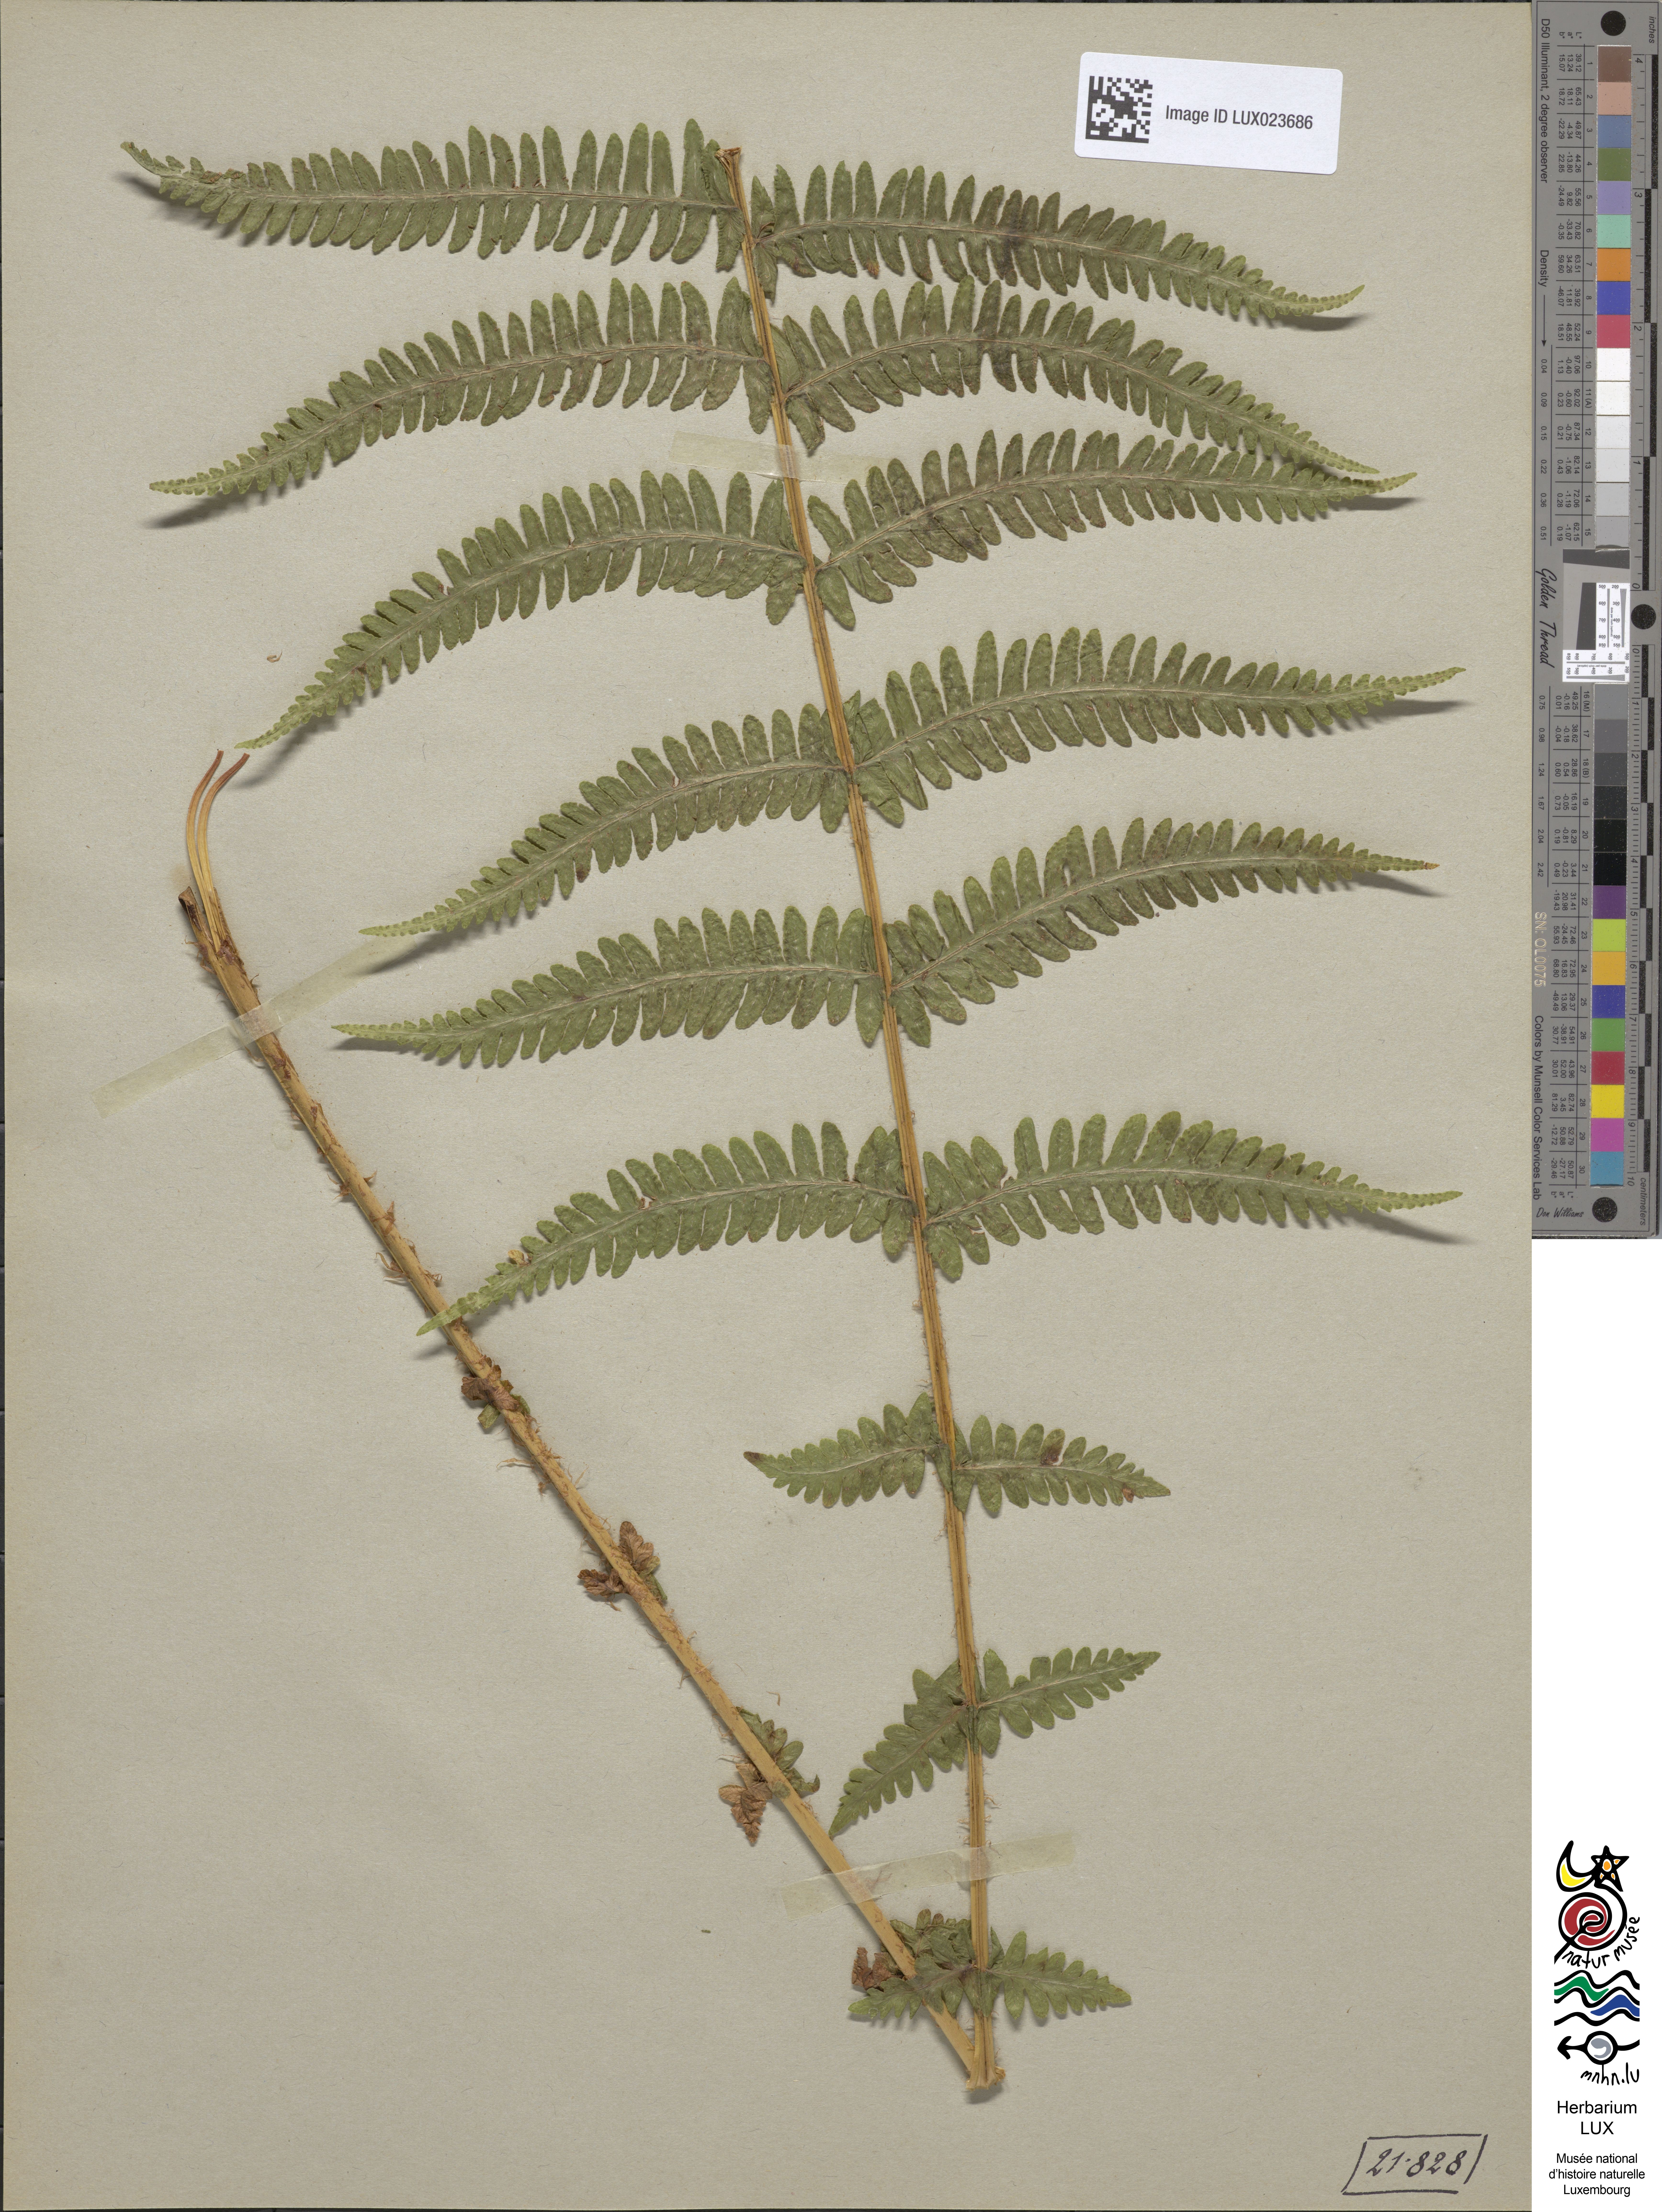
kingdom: Plantae
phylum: Tracheophyta
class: Polypodiopsida
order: Polypodiales
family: Thelypteridaceae
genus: Oreopteris
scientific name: Oreopteris limbosperma
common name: Lemon-scented fern
